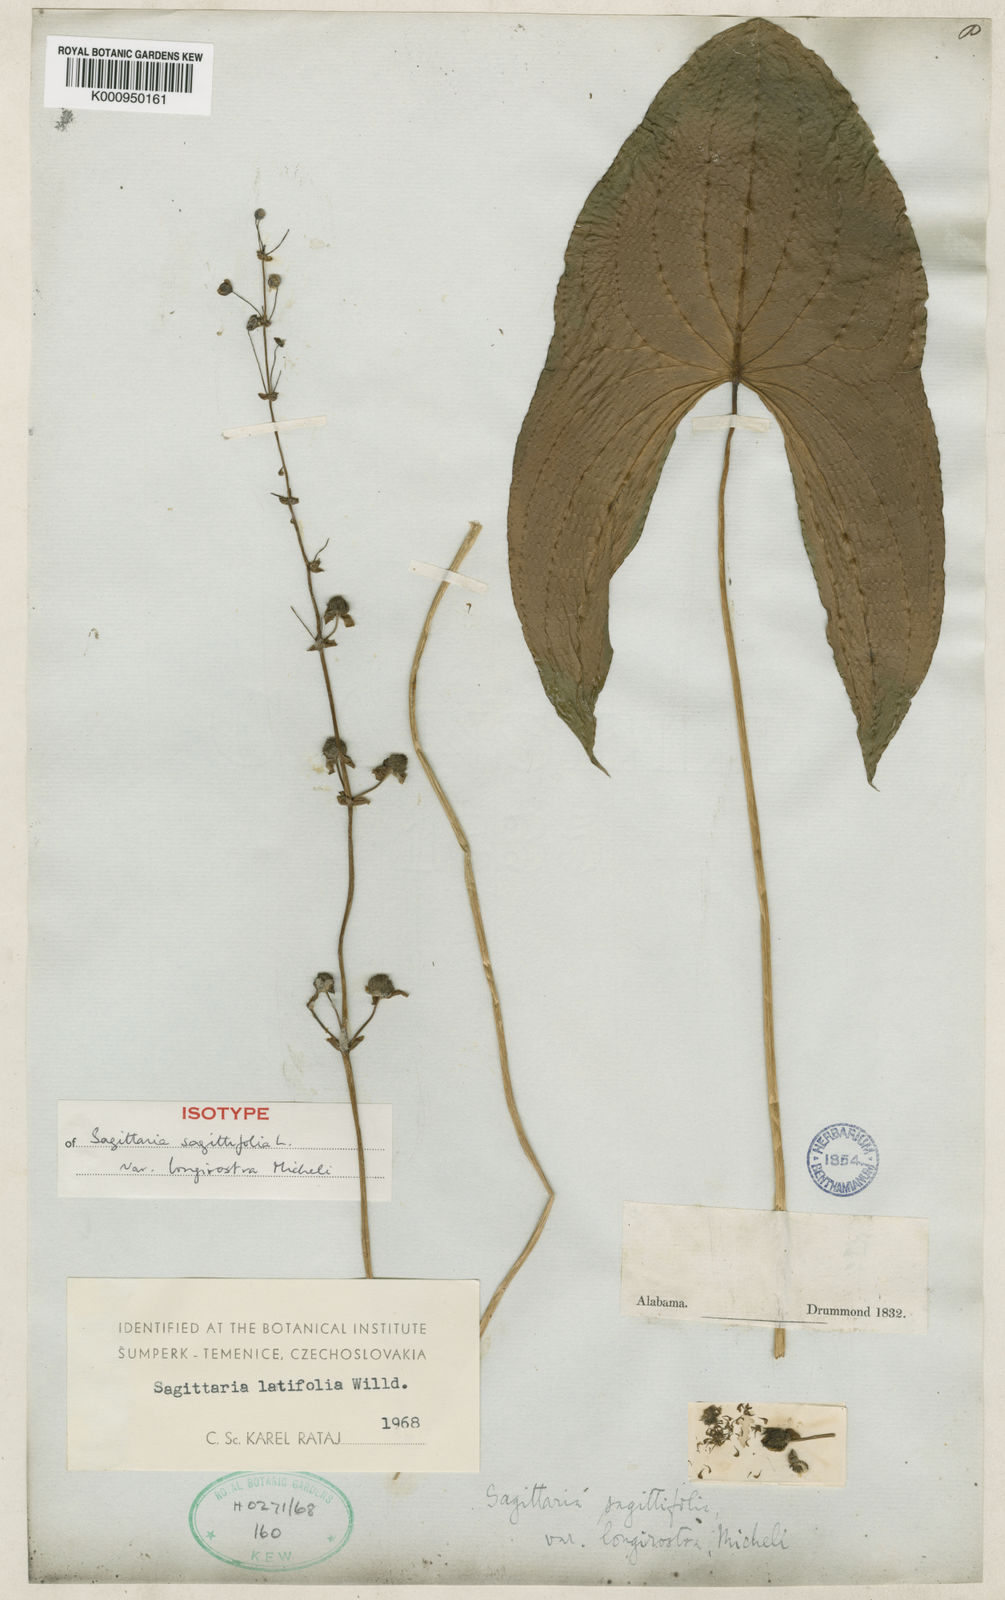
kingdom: Plantae
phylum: Tracheophyta
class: Liliopsida
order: Alismatales
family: Alismataceae
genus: Sagittaria
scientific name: Sagittaria latifolia
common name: Duck-potato
